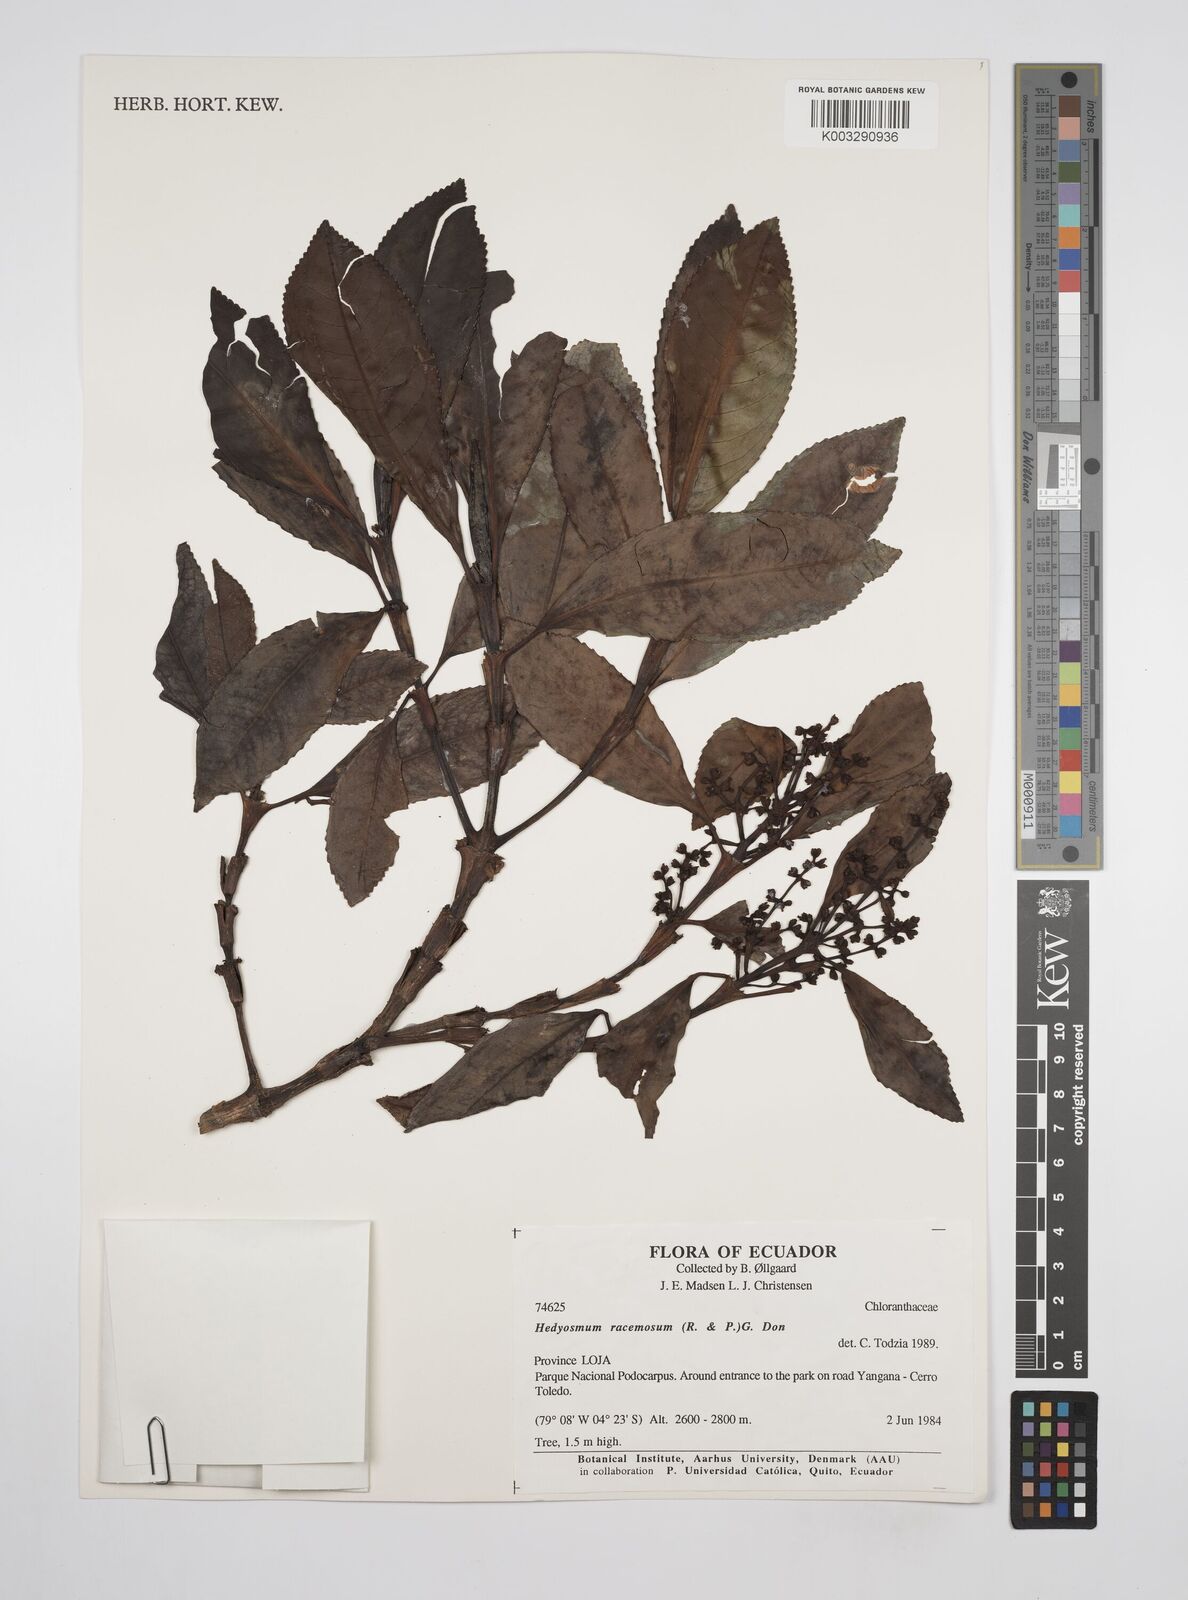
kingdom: Plantae
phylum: Tracheophyta
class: Magnoliopsida
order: Chloranthales
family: Chloranthaceae
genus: Hedyosmum
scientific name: Hedyosmum racemosum
